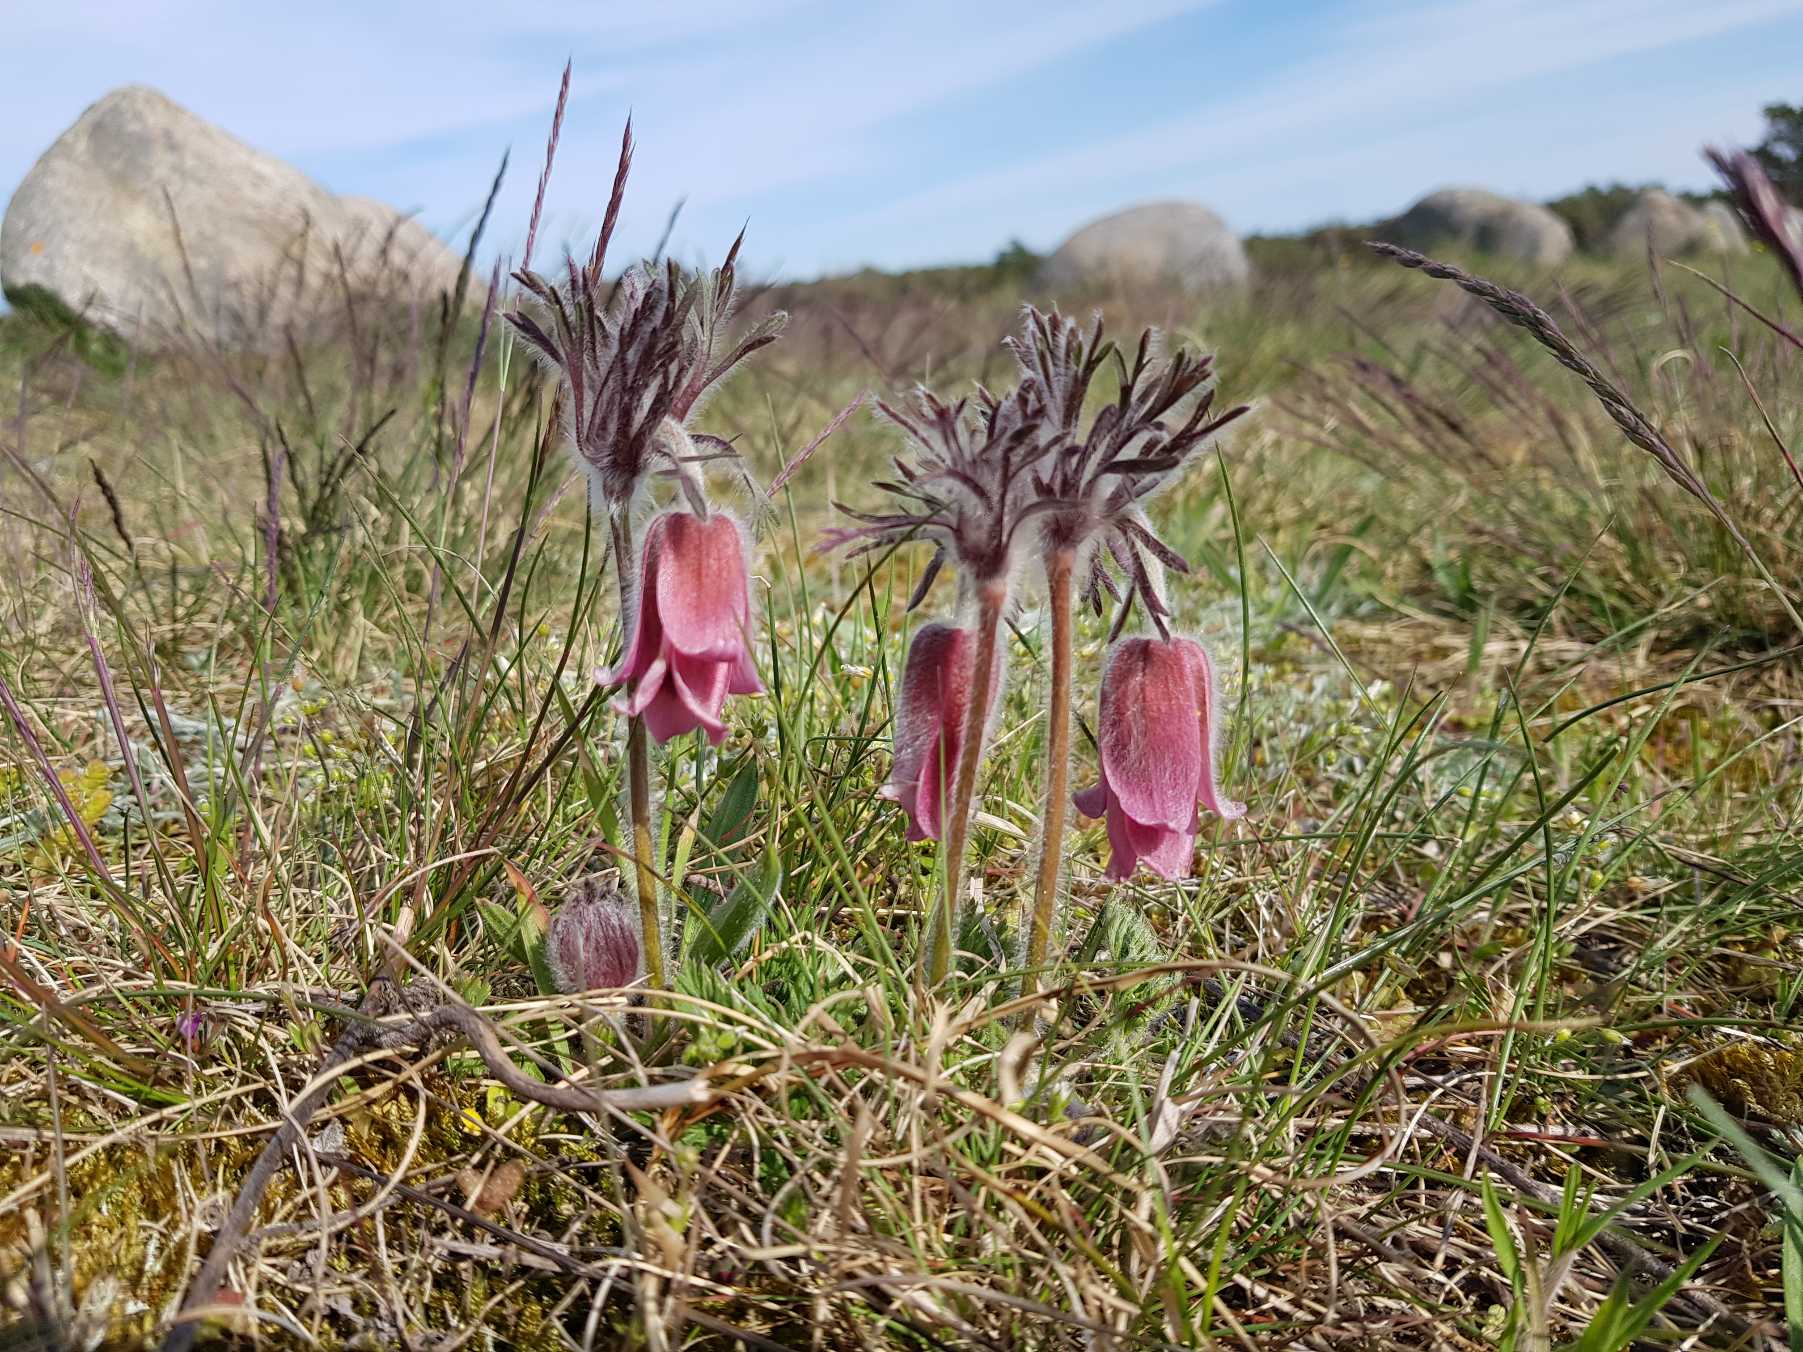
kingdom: Plantae
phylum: Tracheophyta
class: Magnoliopsida
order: Ranunculales
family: Ranunculaceae
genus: Pulsatilla
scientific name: Pulsatilla pratensis
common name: Nikkende kobjælde
